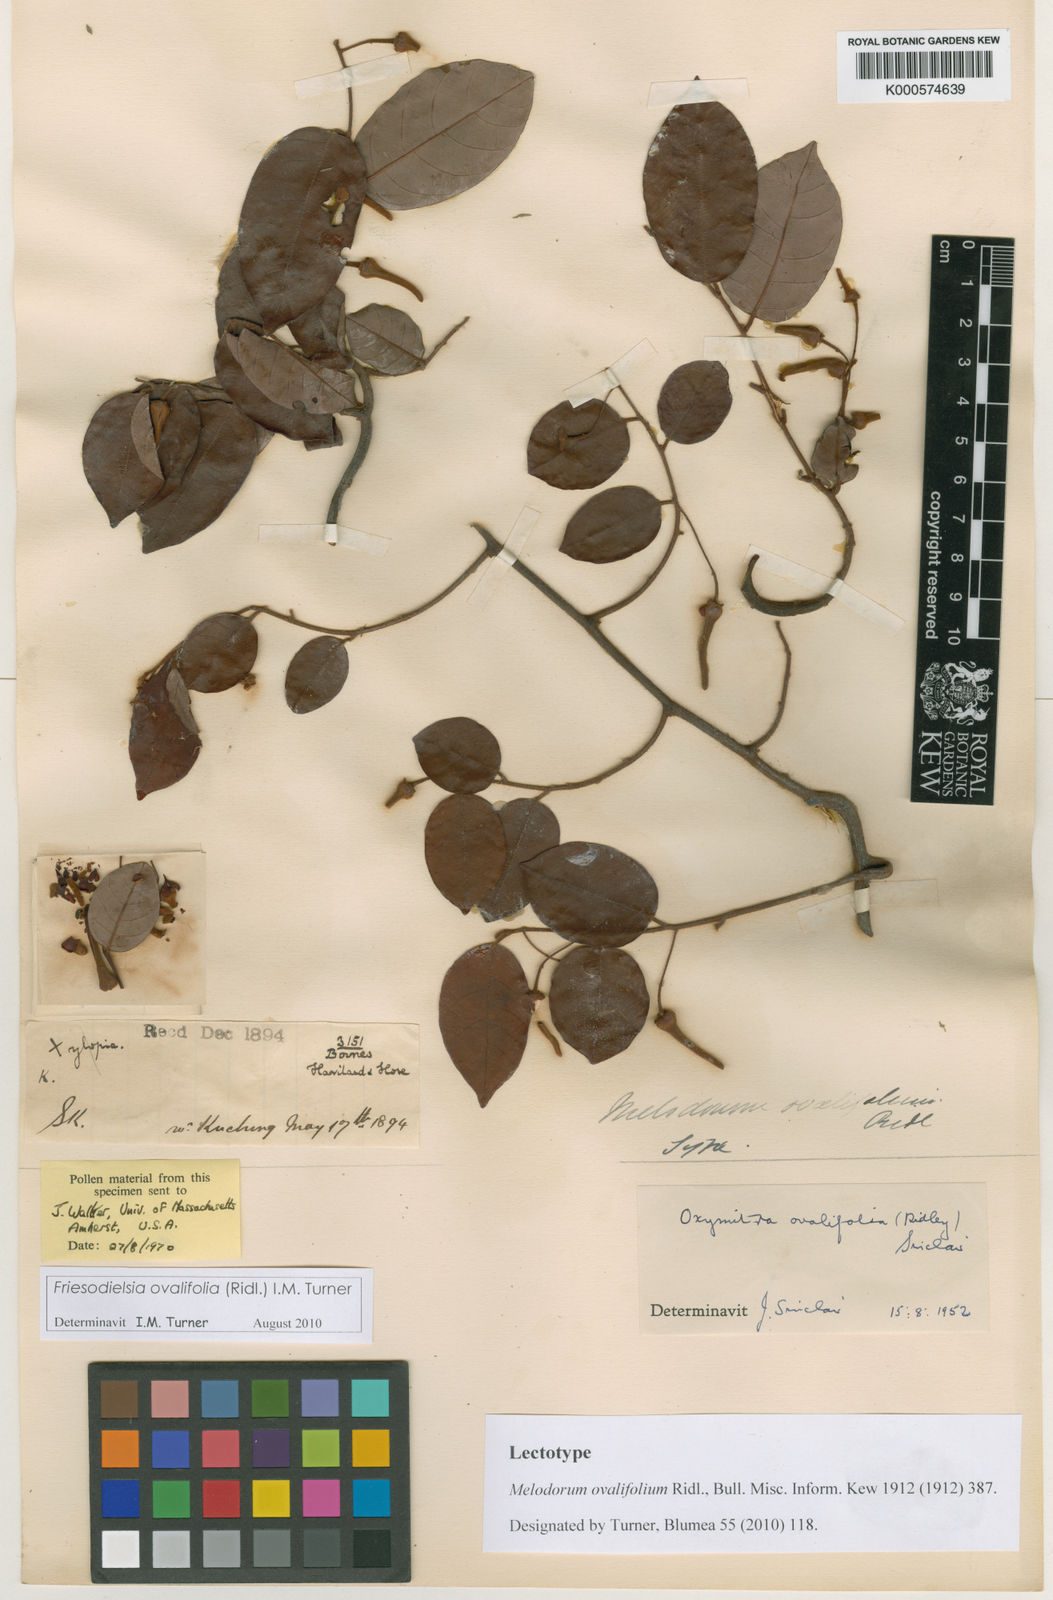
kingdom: Plantae
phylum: Tracheophyta
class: Magnoliopsida
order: Magnoliales
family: Annonaceae
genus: Friesodielsia
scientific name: Friesodielsia ovalifolia
